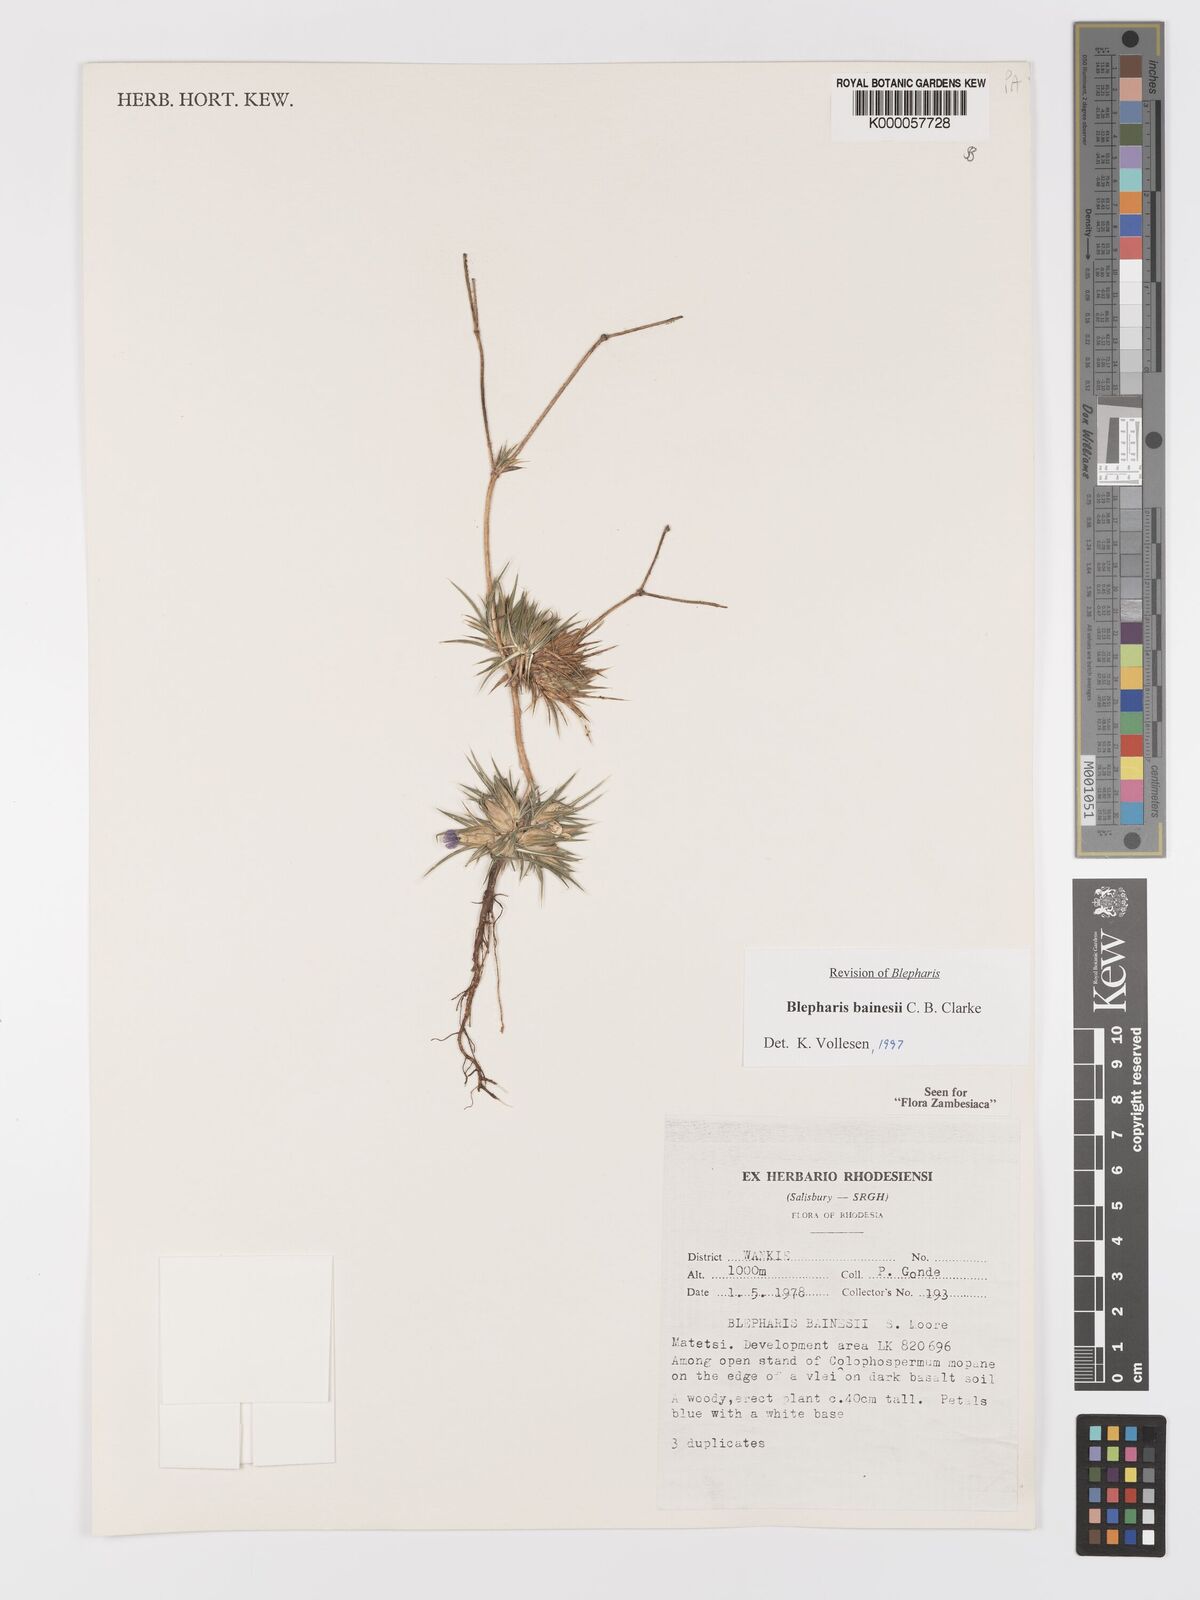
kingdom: Plantae
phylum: Tracheophyta
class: Magnoliopsida
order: Lamiales
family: Acanthaceae
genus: Blepharis
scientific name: Blepharis bainesii
